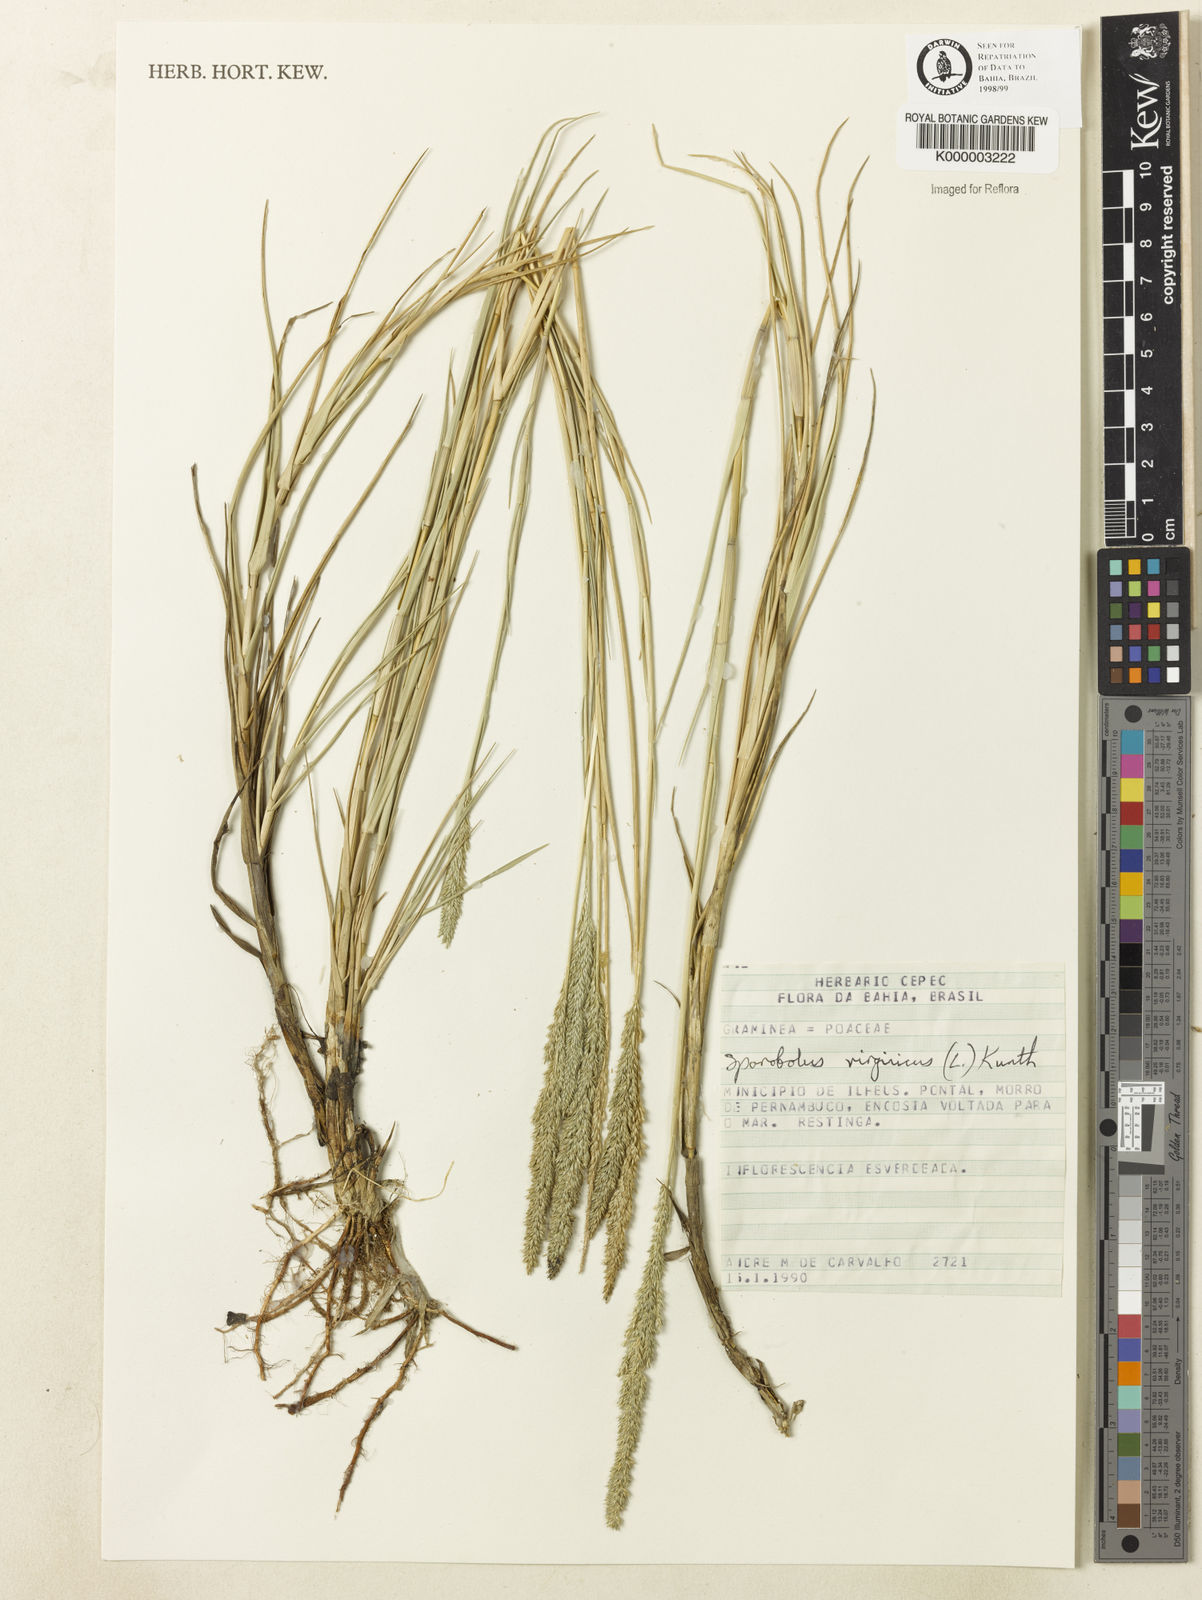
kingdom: Plantae
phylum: Tracheophyta
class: Liliopsida
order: Poales
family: Poaceae
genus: Sporobolus
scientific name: Sporobolus virginicus
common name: Beach dropseed
